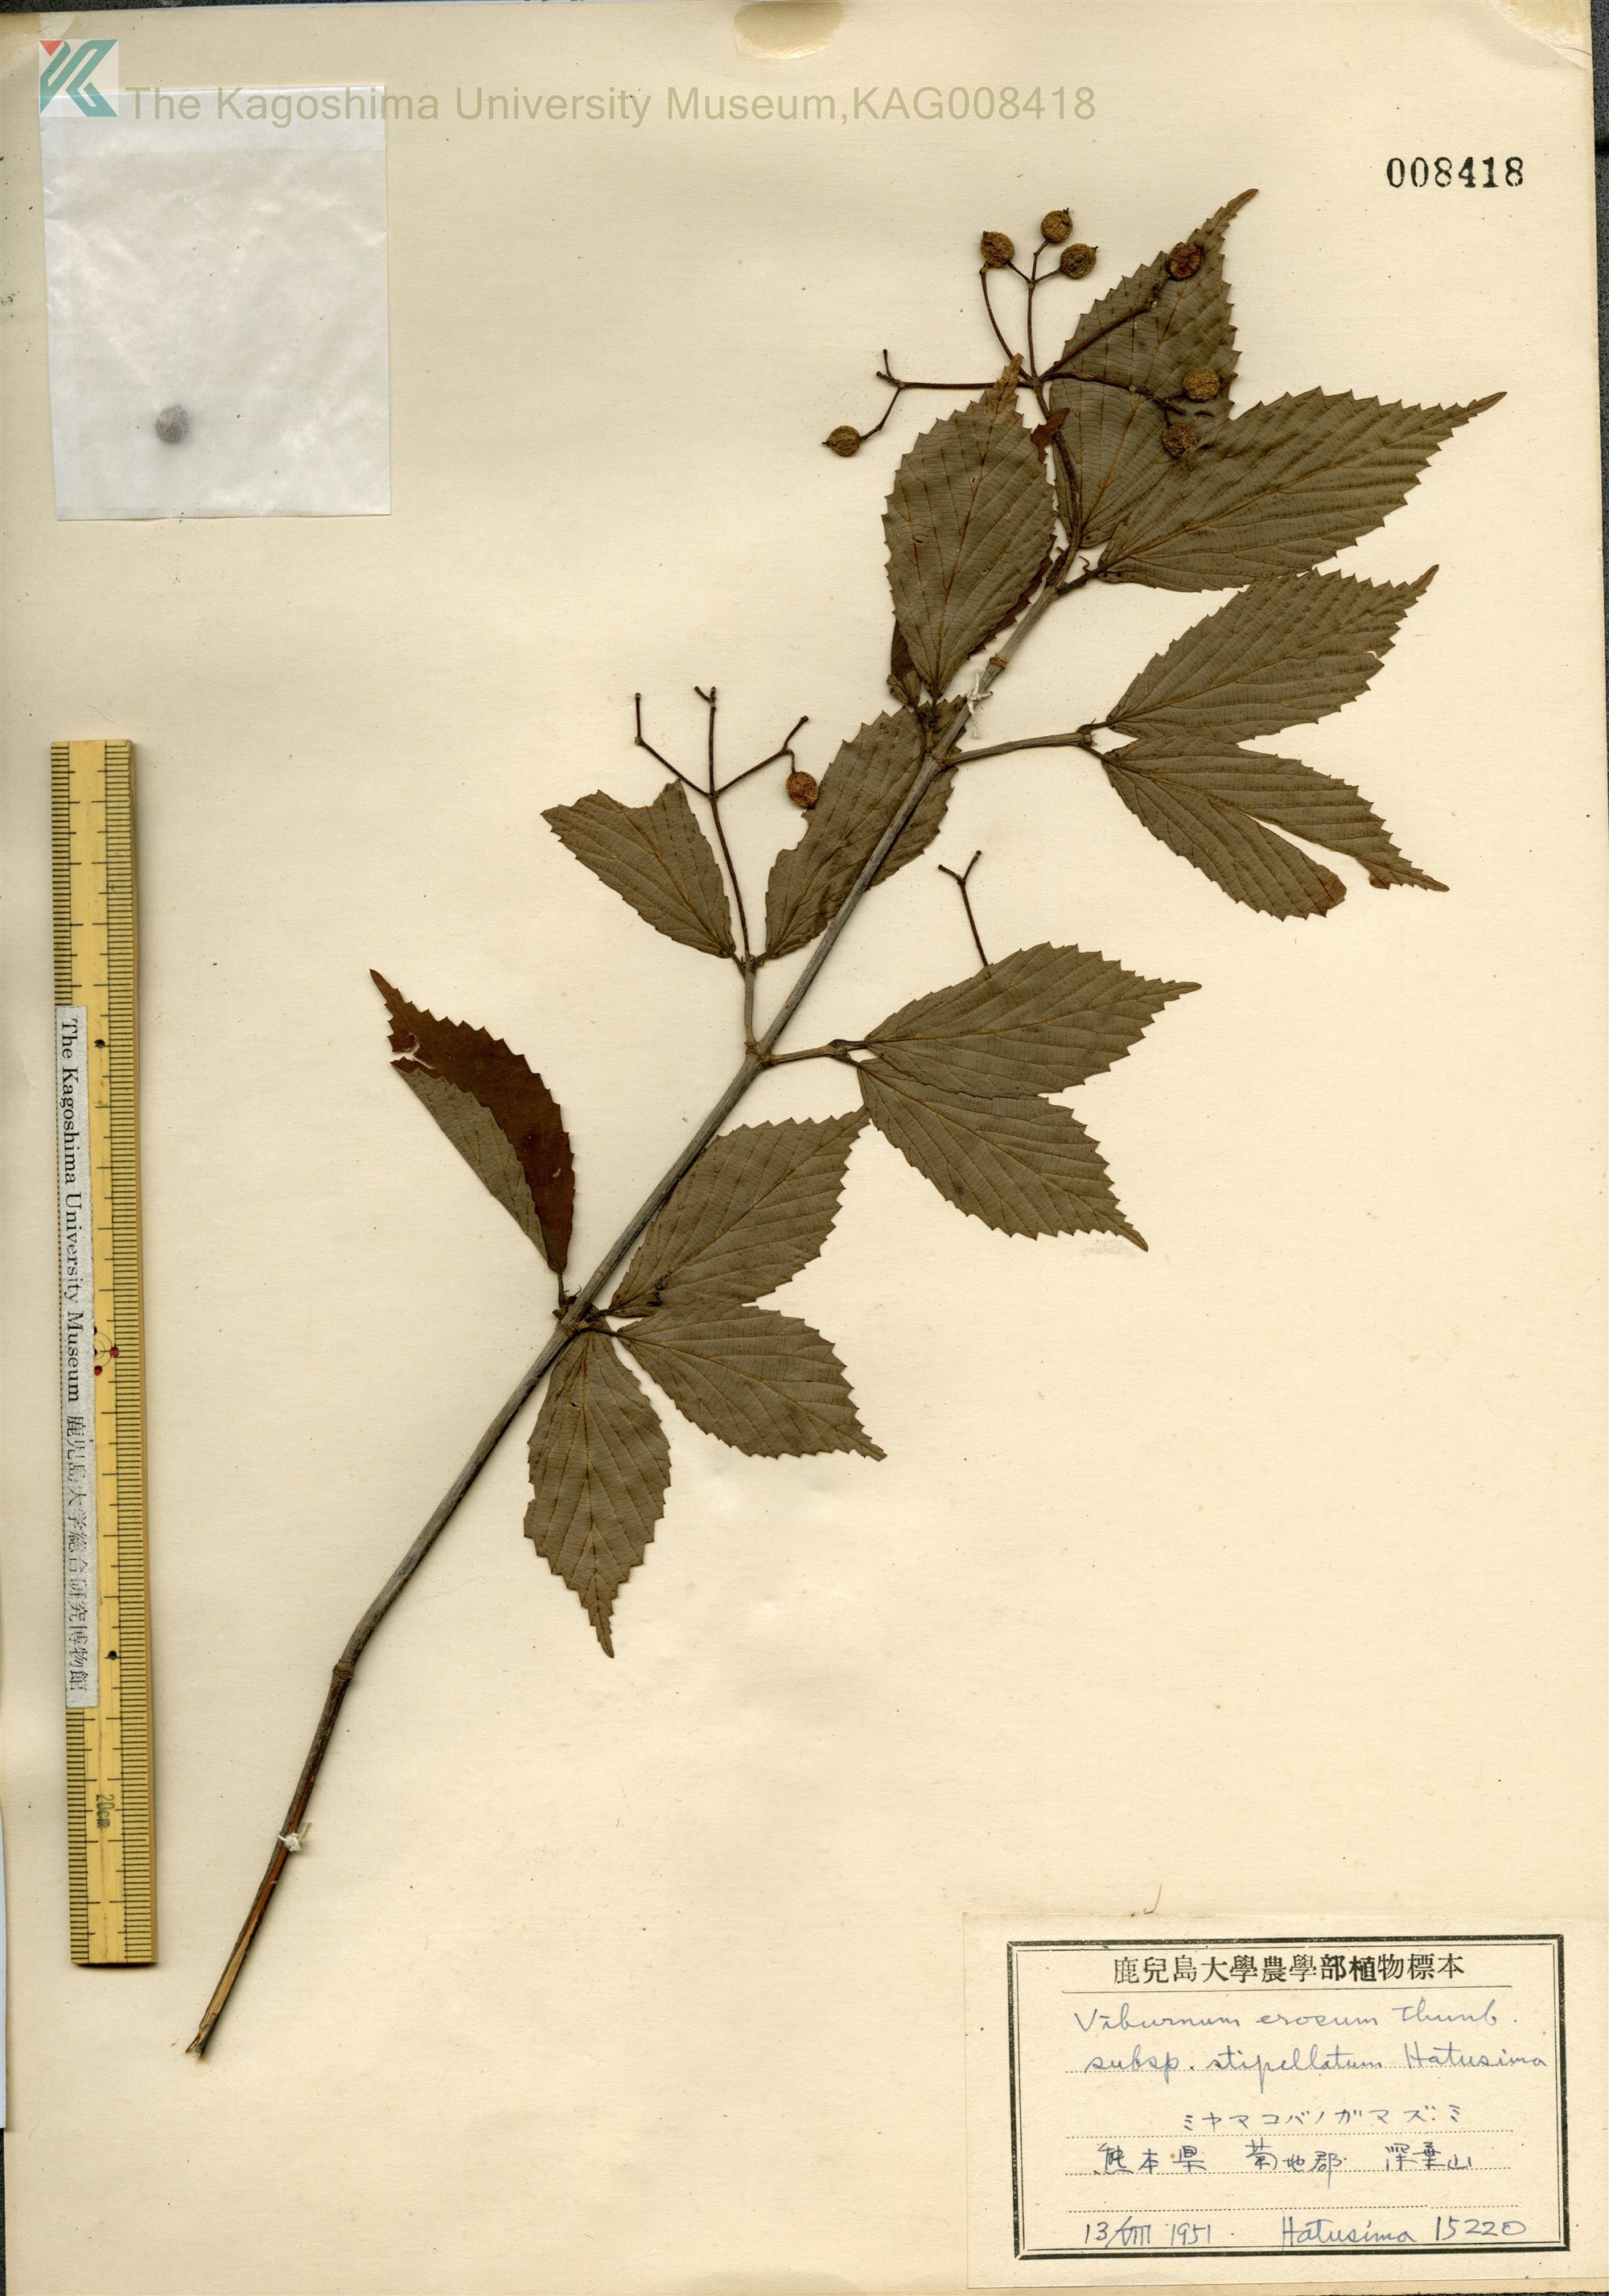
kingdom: Plantae
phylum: Tracheophyta
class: Magnoliopsida
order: Dipsacales
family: Viburnaceae
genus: Viburnum
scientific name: Viburnum erosum
